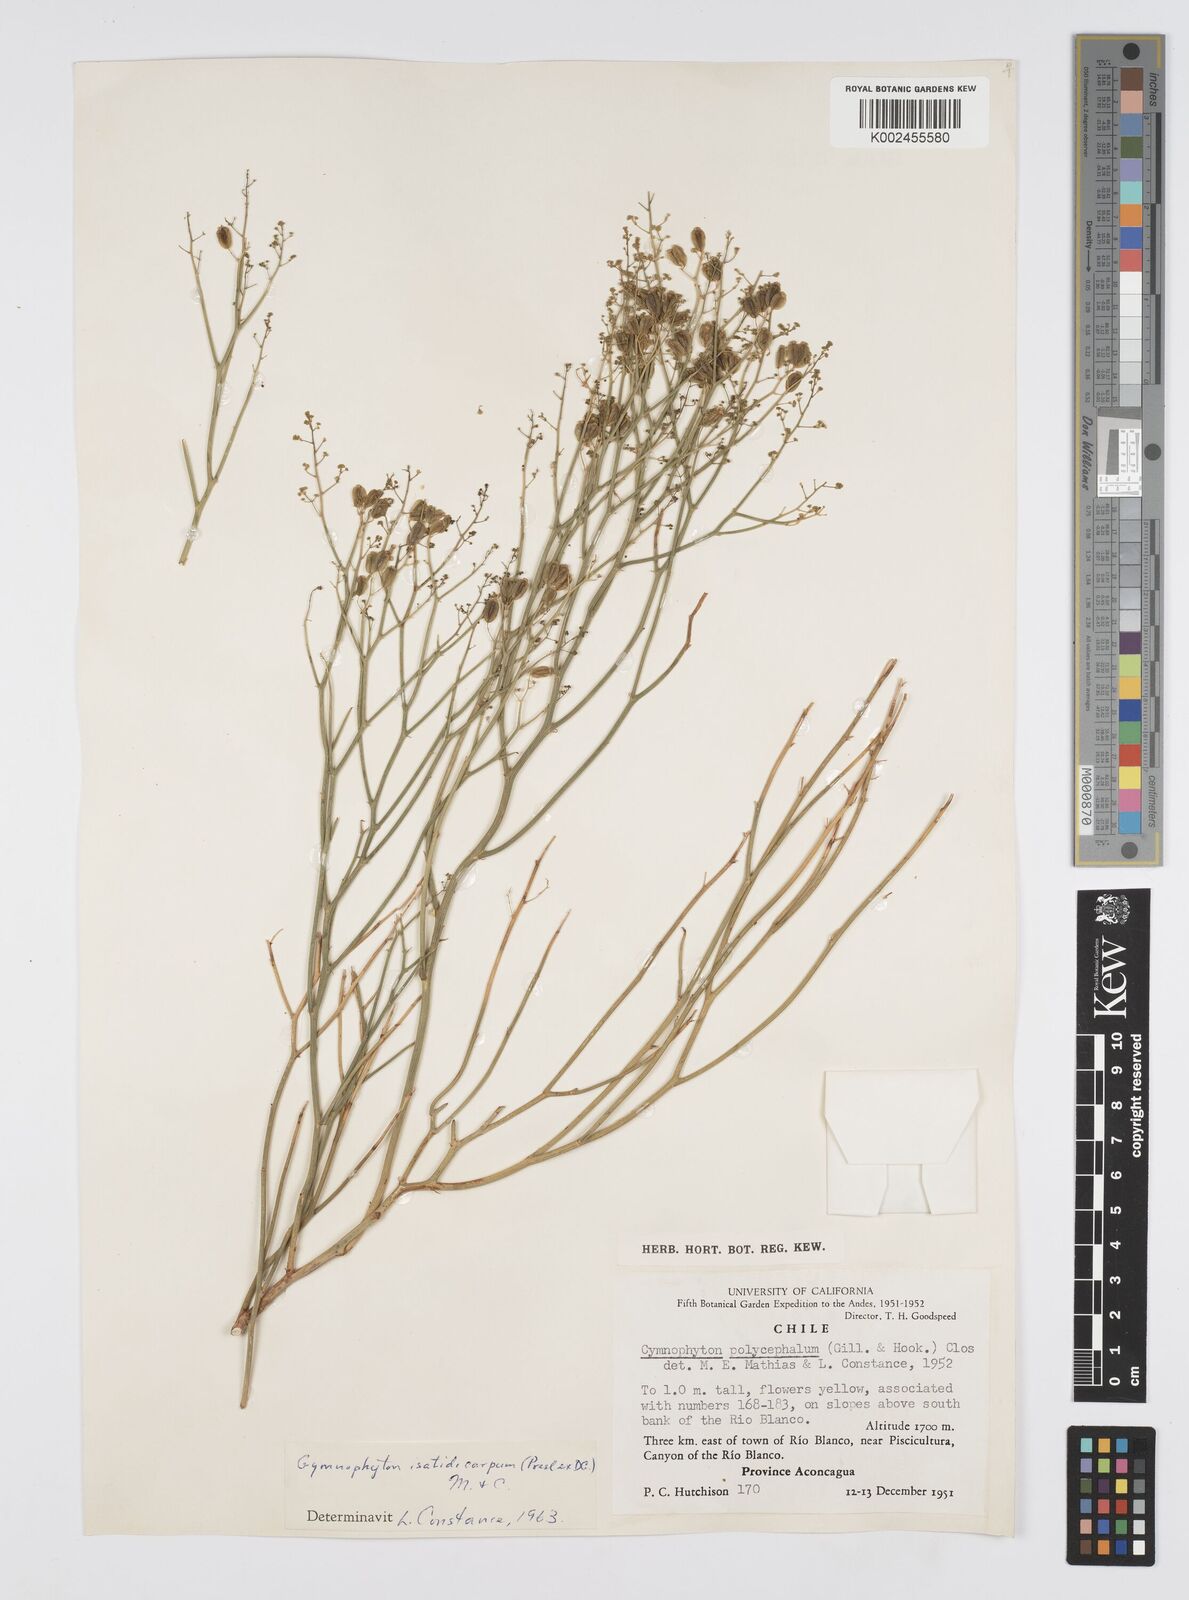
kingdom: Plantae
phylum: Tracheophyta
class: Magnoliopsida
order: Apiales
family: Apiaceae
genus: Gymnophyton
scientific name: Gymnophyton isatidicarpum
